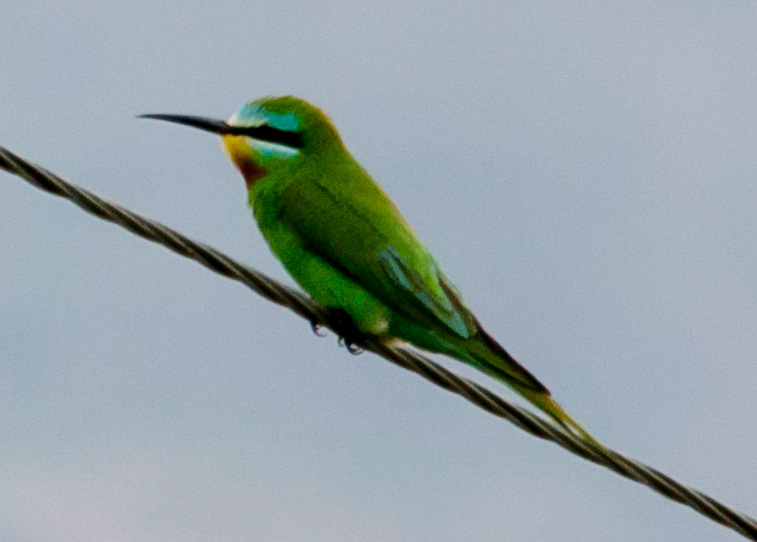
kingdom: Animalia
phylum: Chordata
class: Aves
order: Coraciiformes
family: Meropidae
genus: Merops
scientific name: Merops orientalis
